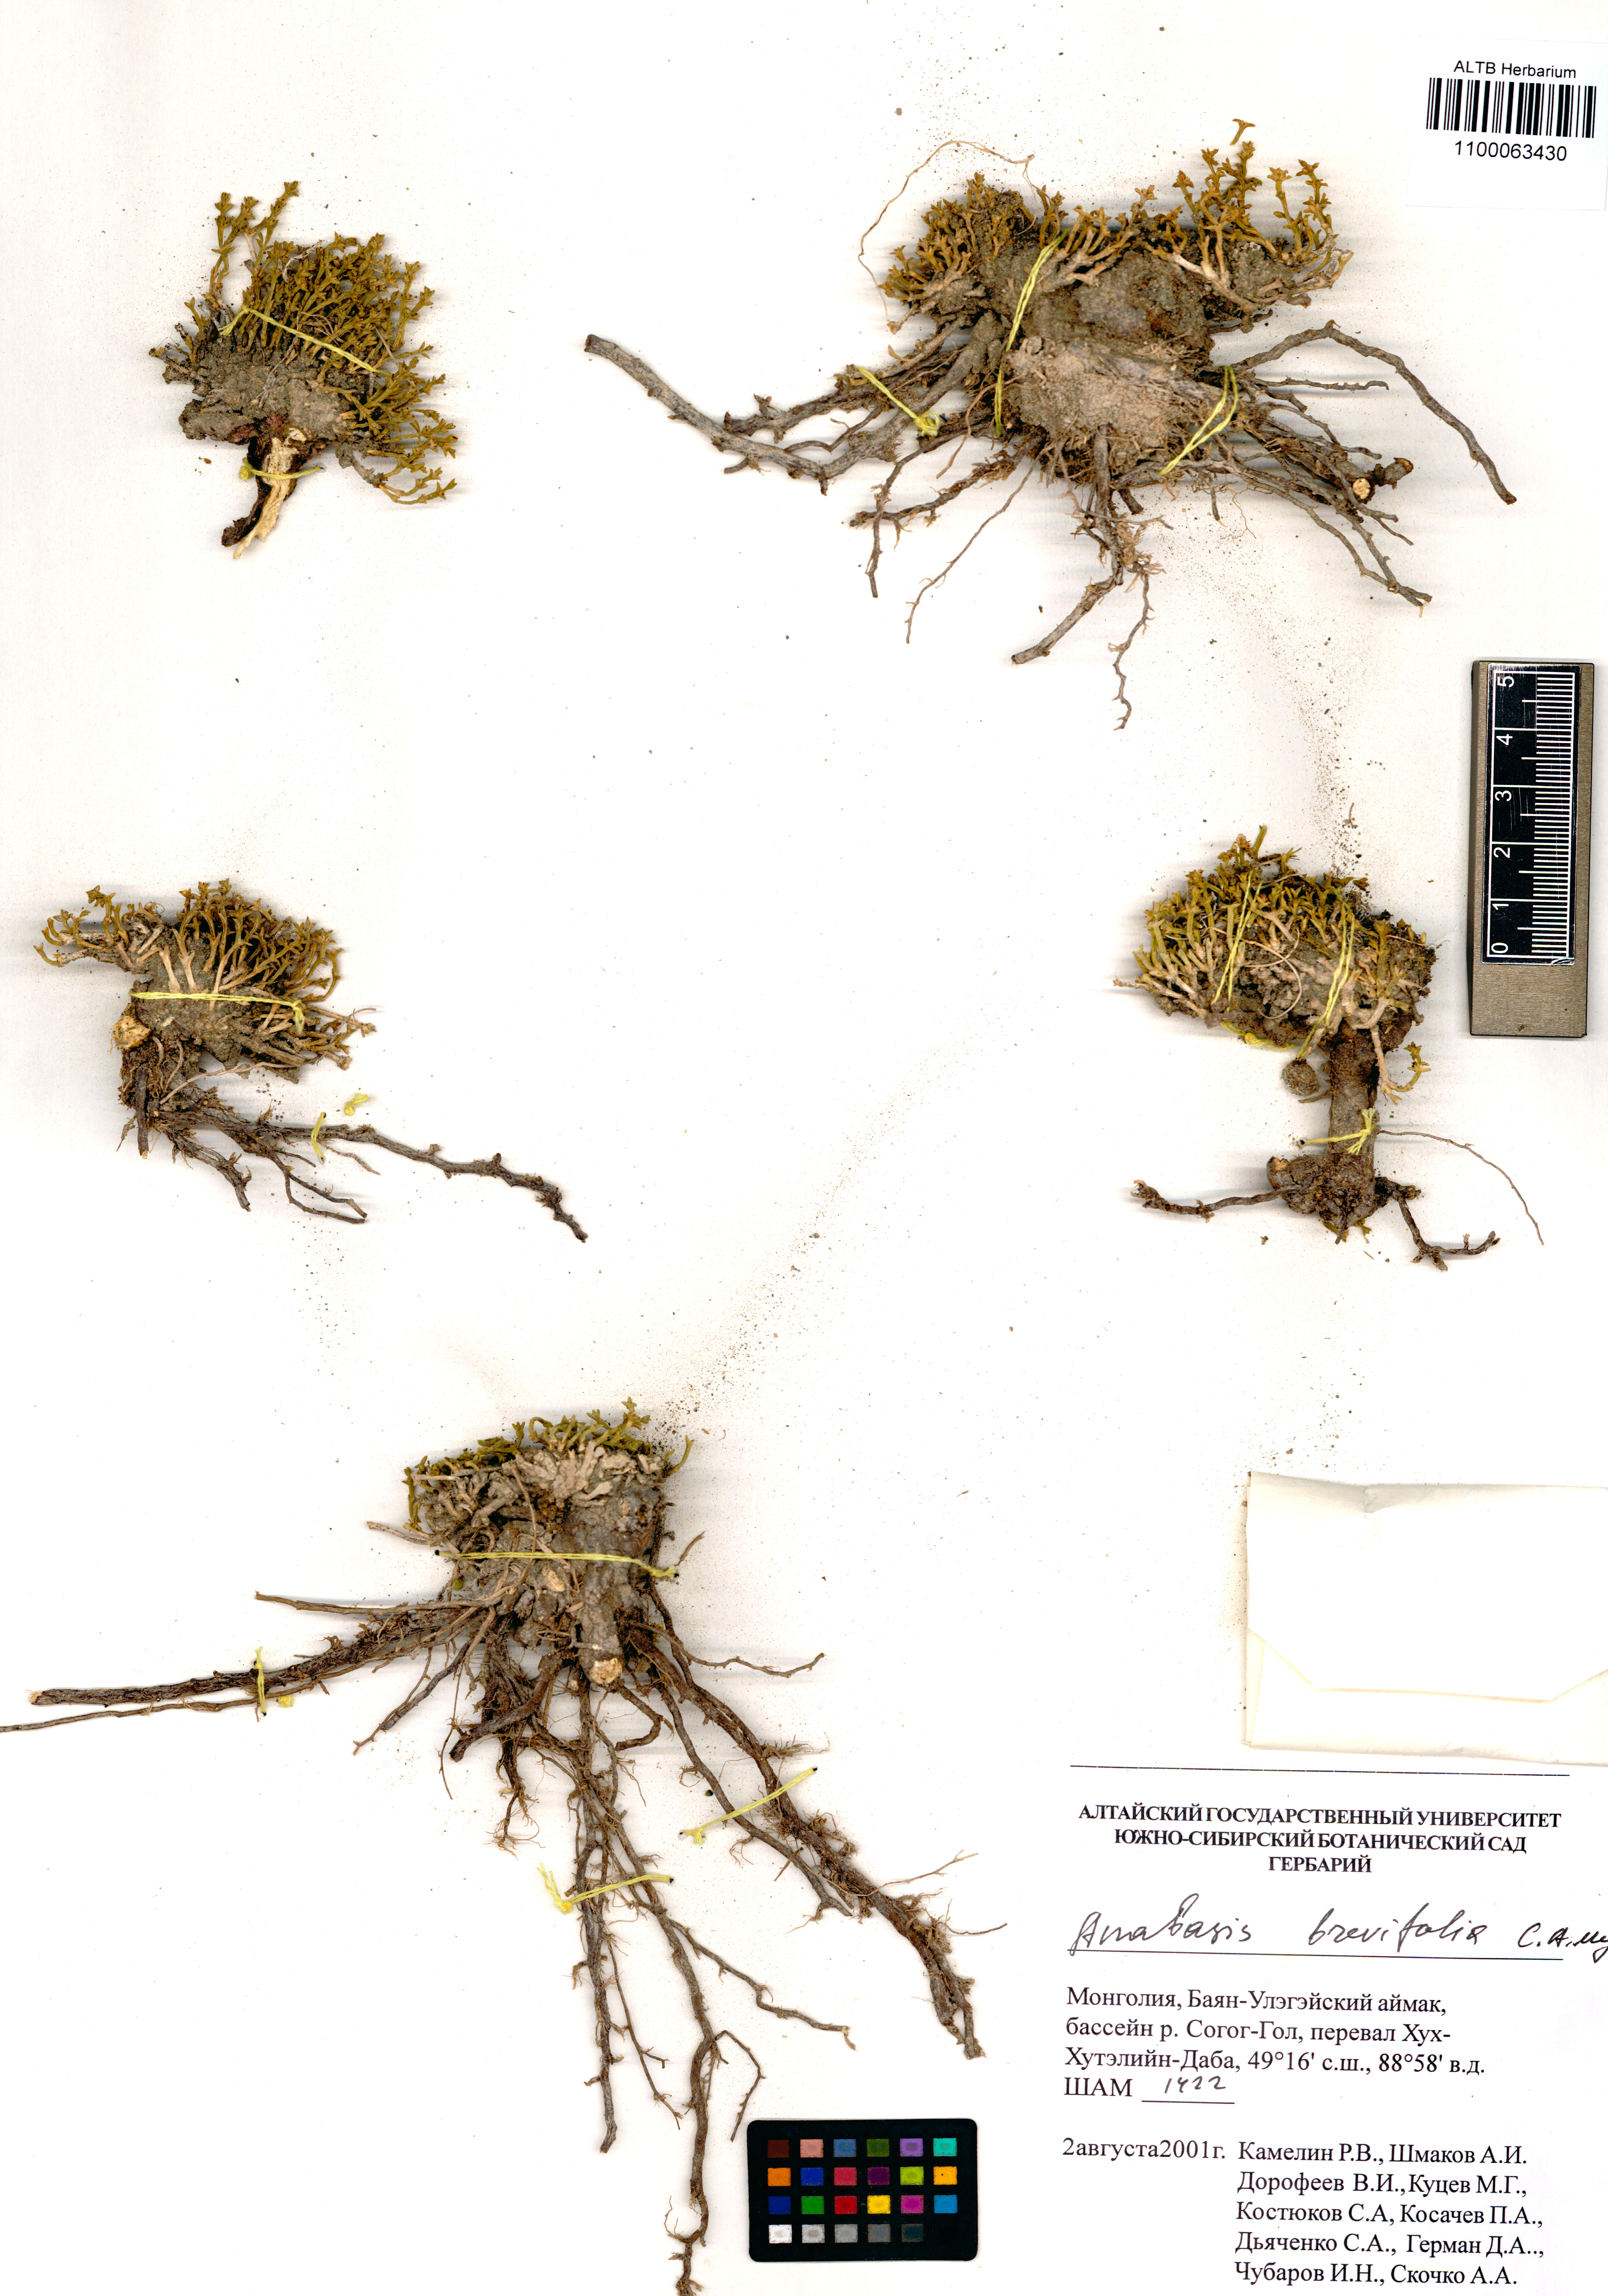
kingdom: Plantae
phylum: Tracheophyta
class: Magnoliopsida
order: Caryophyllales
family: Amaranthaceae
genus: Anabasis
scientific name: Anabasis brevifolia
